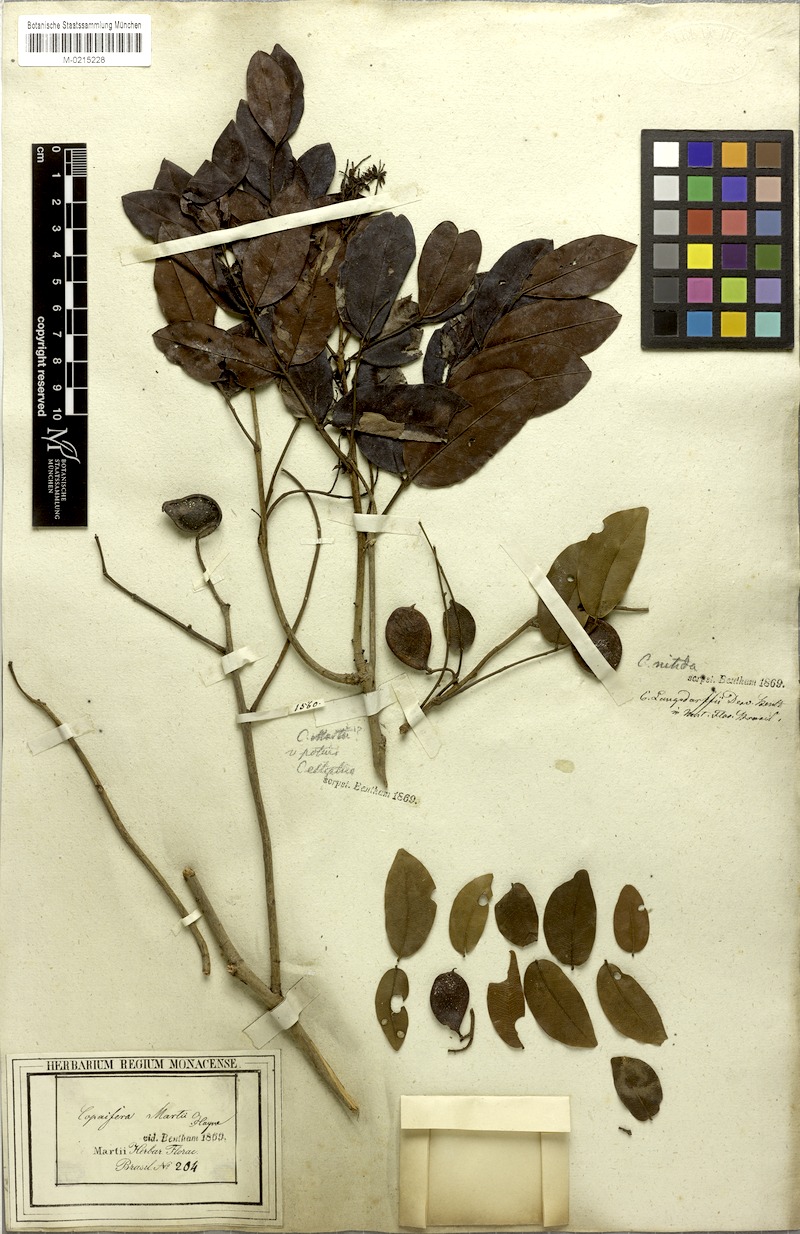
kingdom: Plantae
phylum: Tracheophyta
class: Magnoliopsida
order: Fabales
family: Fabaceae
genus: Copaifera
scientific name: Copaifera langsdorffii
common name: Brazilian diesel tree
